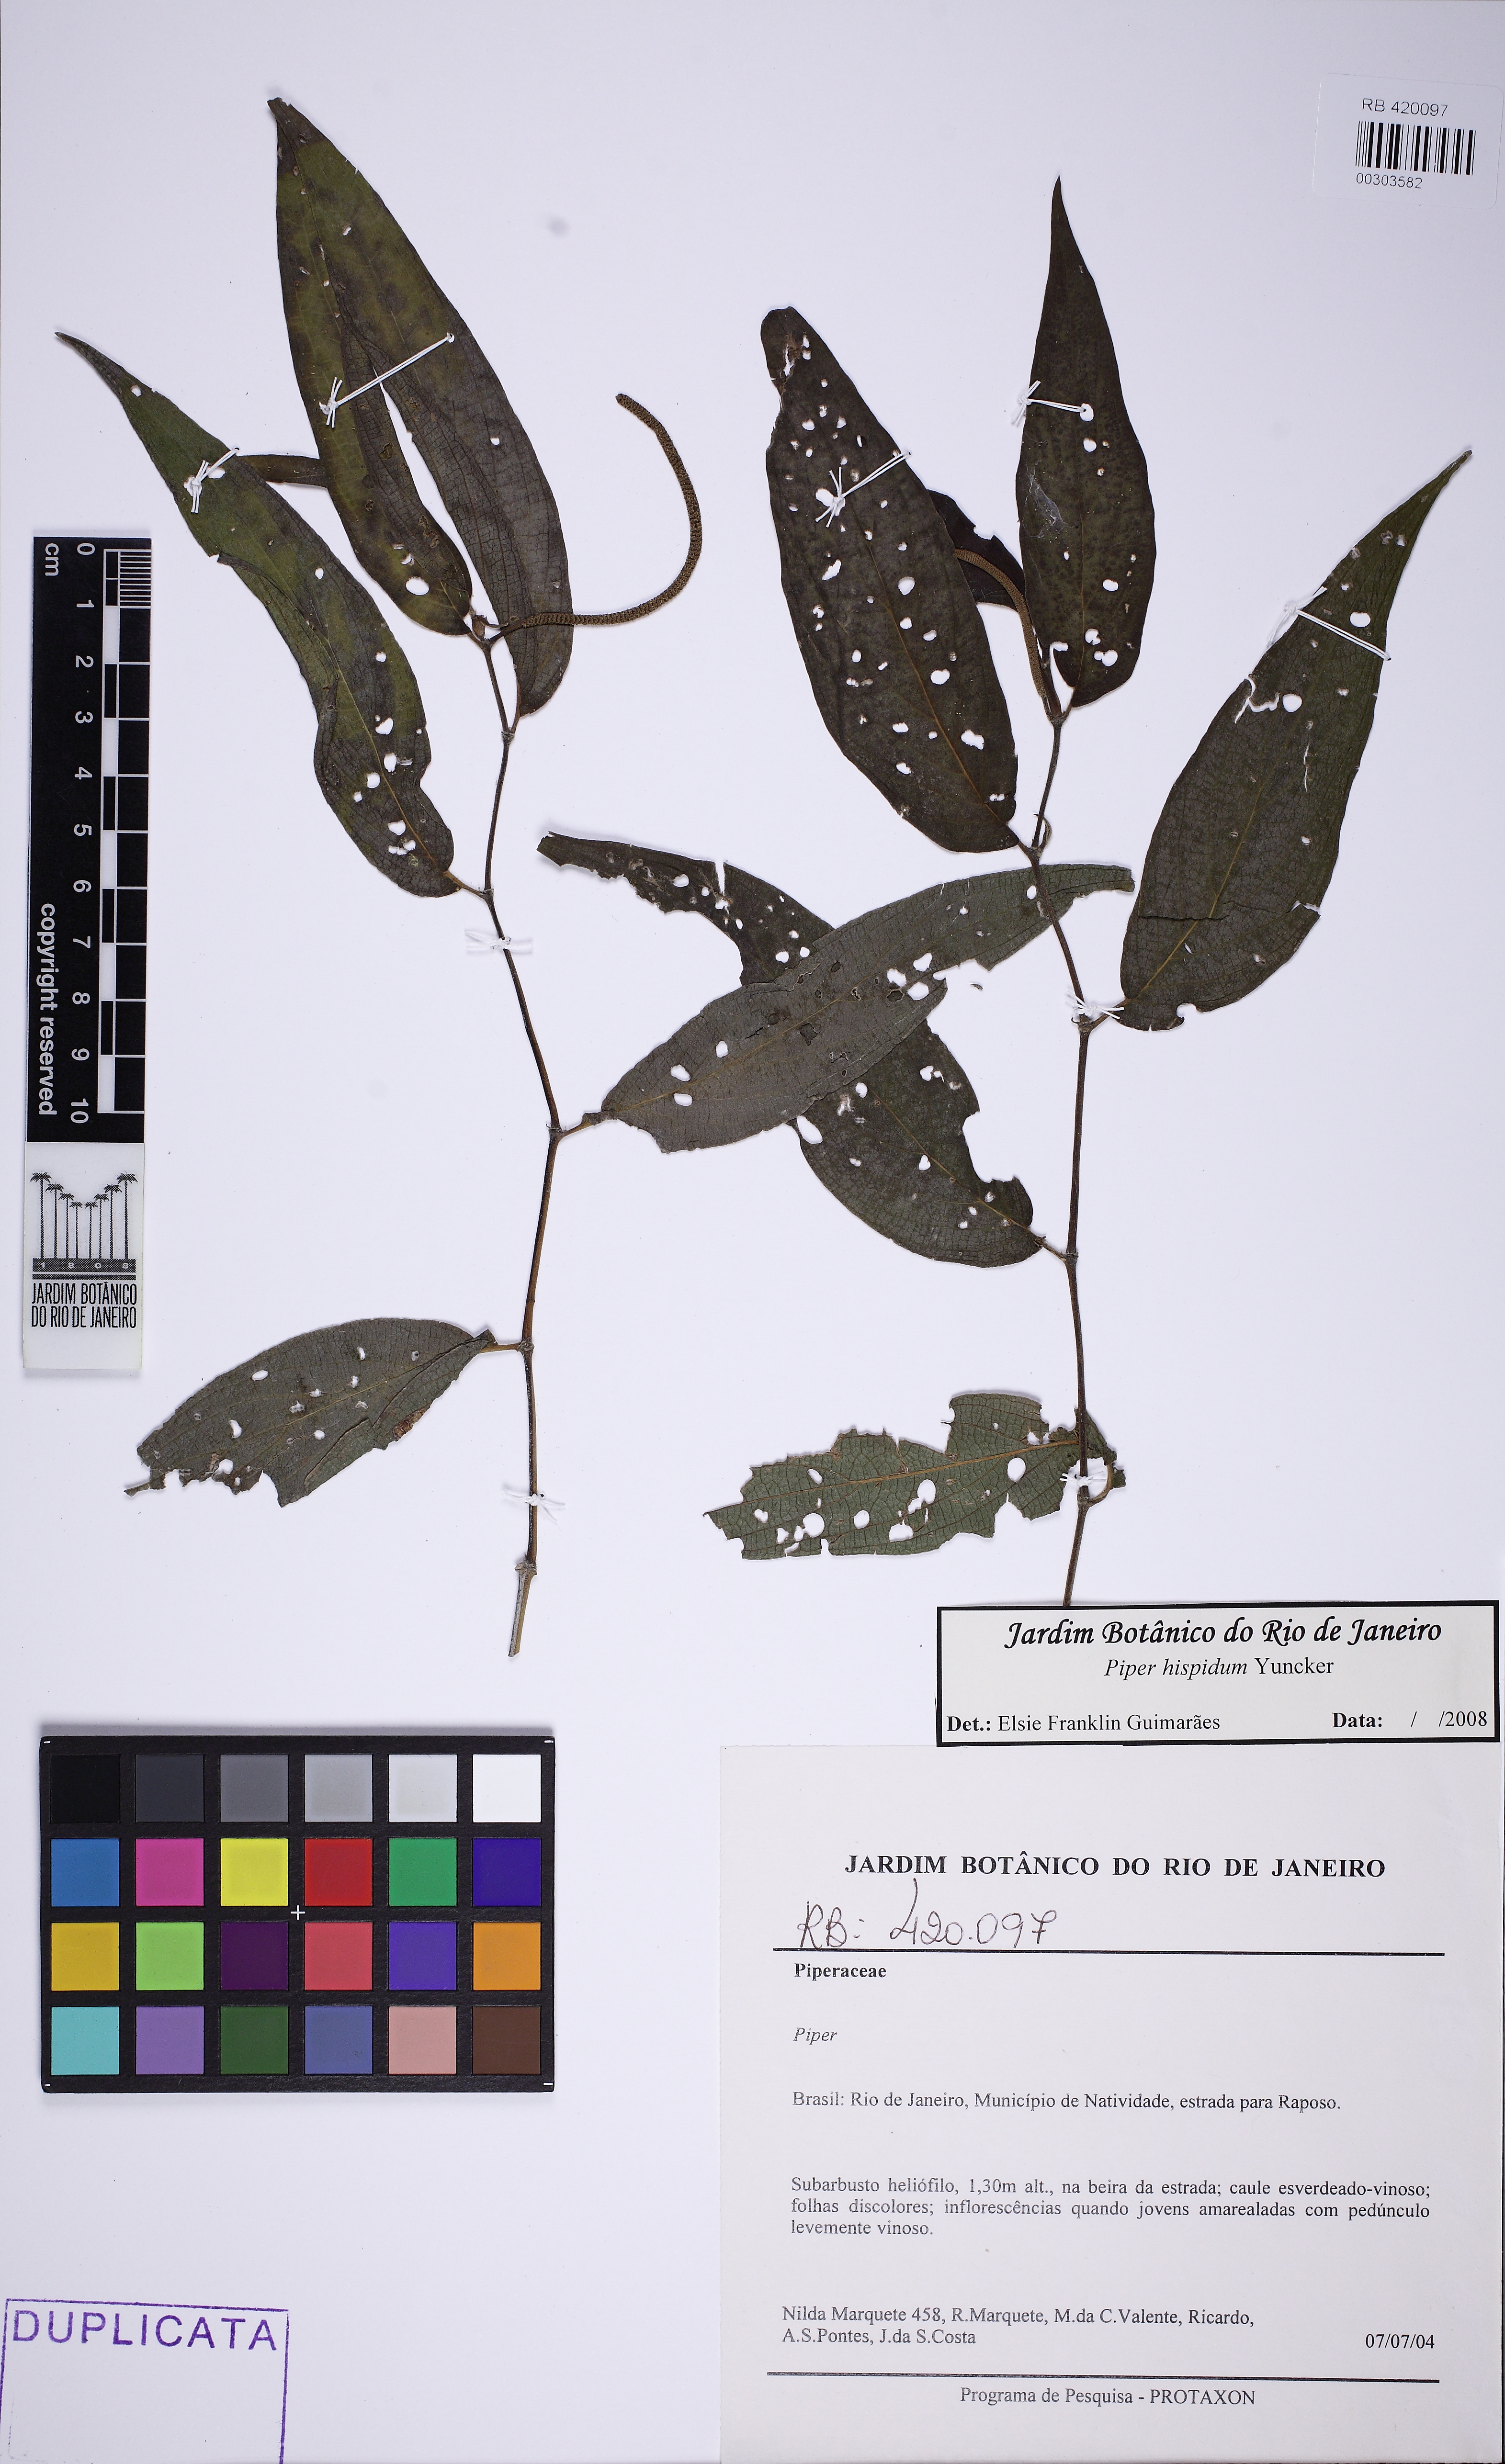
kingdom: Plantae
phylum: Tracheophyta
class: Magnoliopsida
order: Piperales
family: Piperaceae
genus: Piper
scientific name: Piper hispidum
